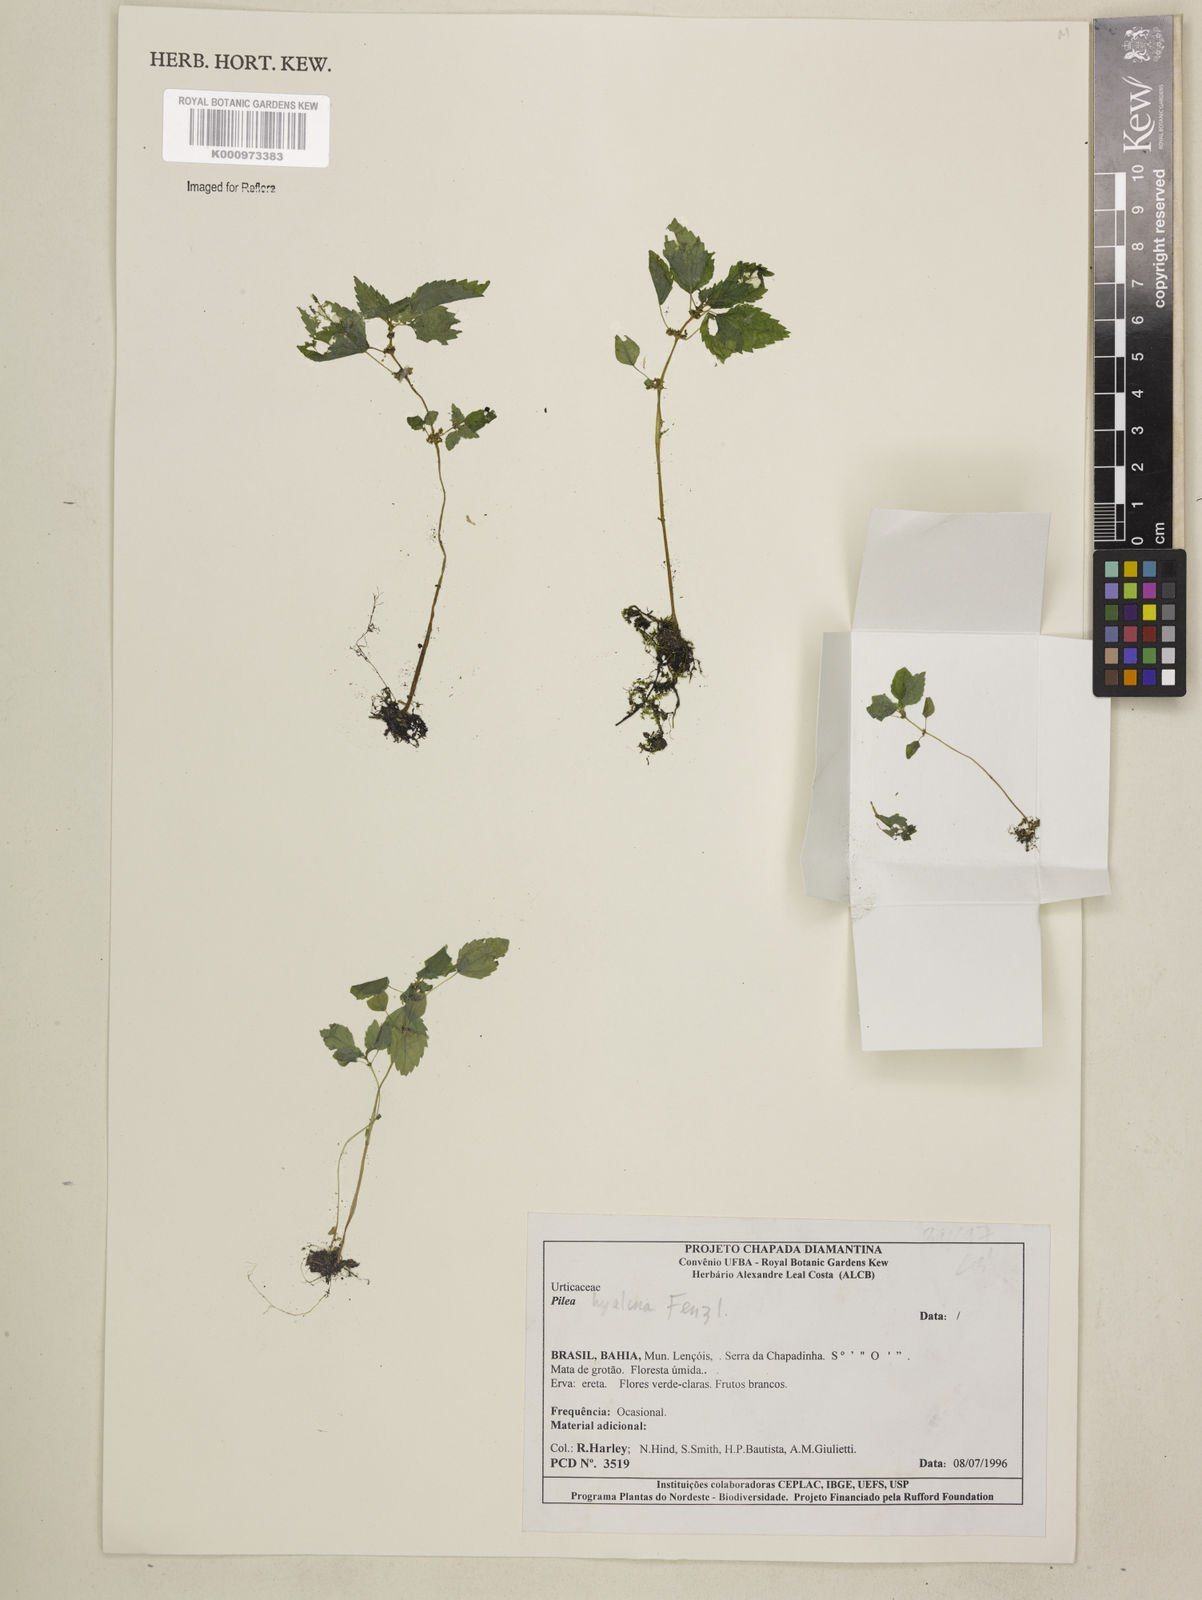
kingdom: Plantae
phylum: Tracheophyta
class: Magnoliopsida
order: Rosales
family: Urticaceae
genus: Pilea
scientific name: Pilea hyalina
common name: Virdrillo
